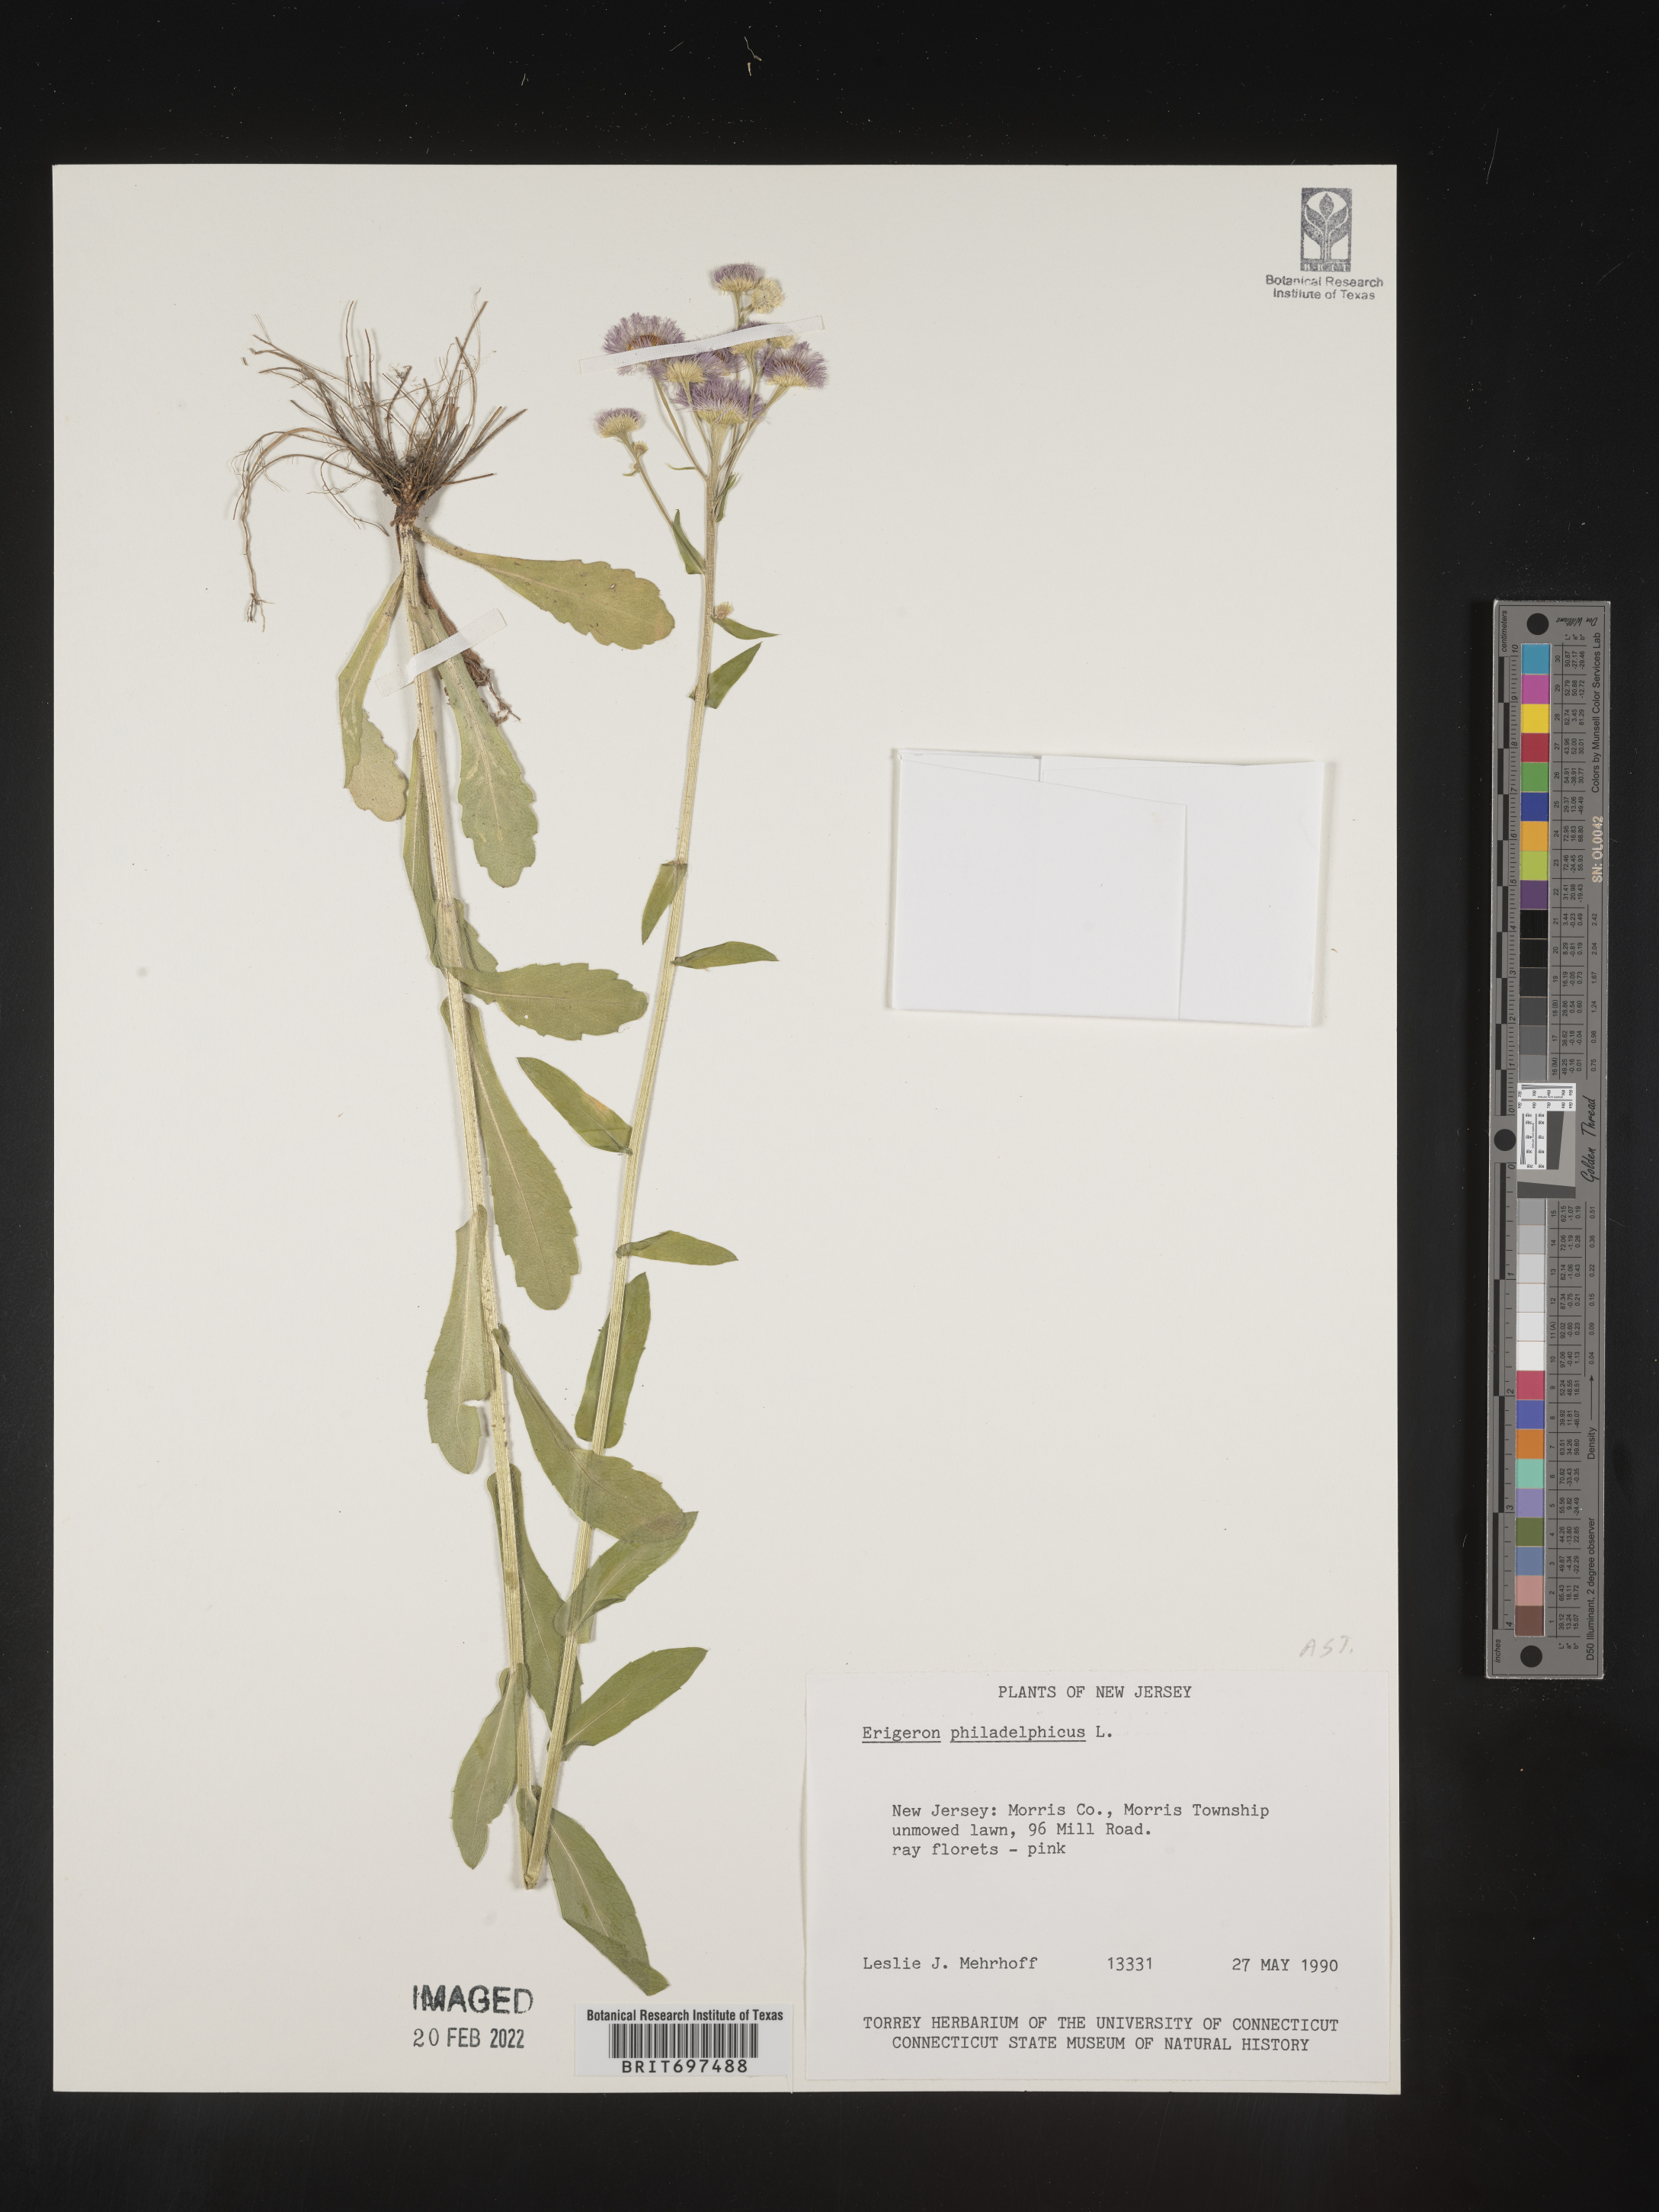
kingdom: Plantae
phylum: Tracheophyta
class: Magnoliopsida
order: Asterales
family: Asteraceae
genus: Erigeron
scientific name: Erigeron philadelphicus
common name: Robin's-plantain
